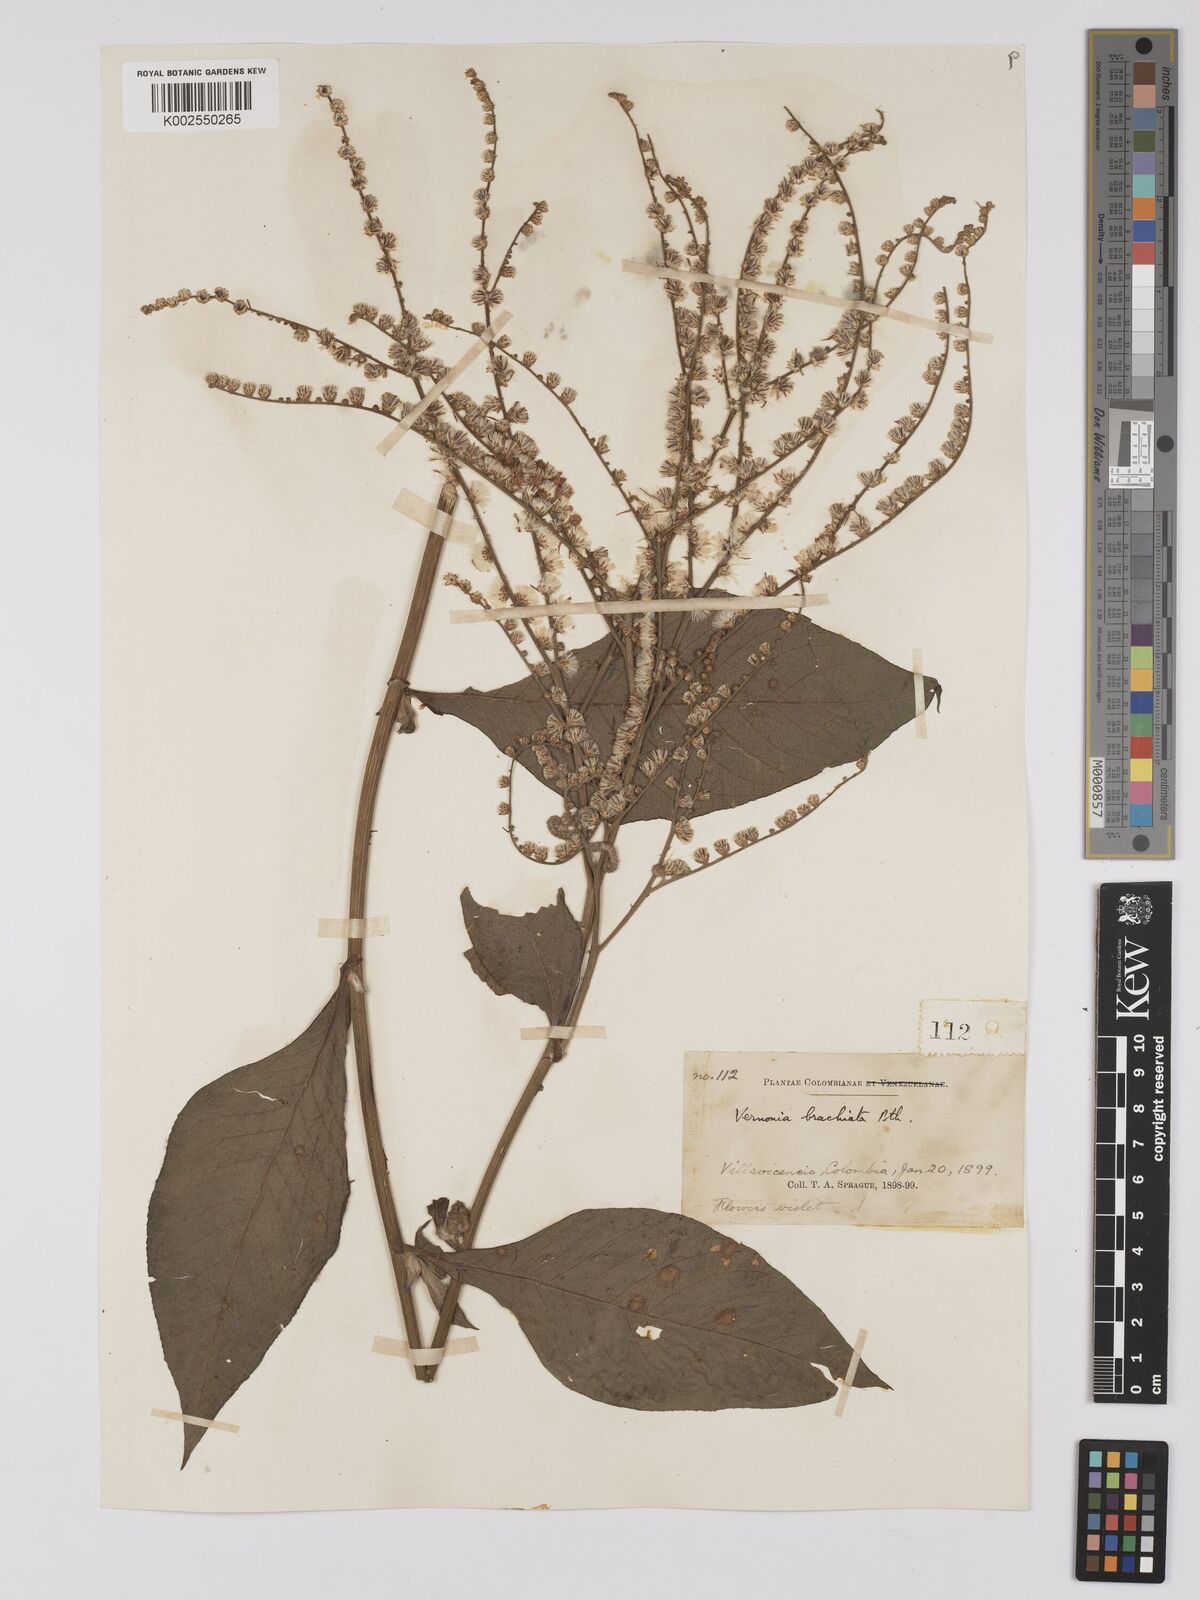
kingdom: Plantae
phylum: Tracheophyta
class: Magnoliopsida
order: Asterales
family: Asteraceae
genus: Eirmocephala
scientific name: Eirmocephala brachiata
